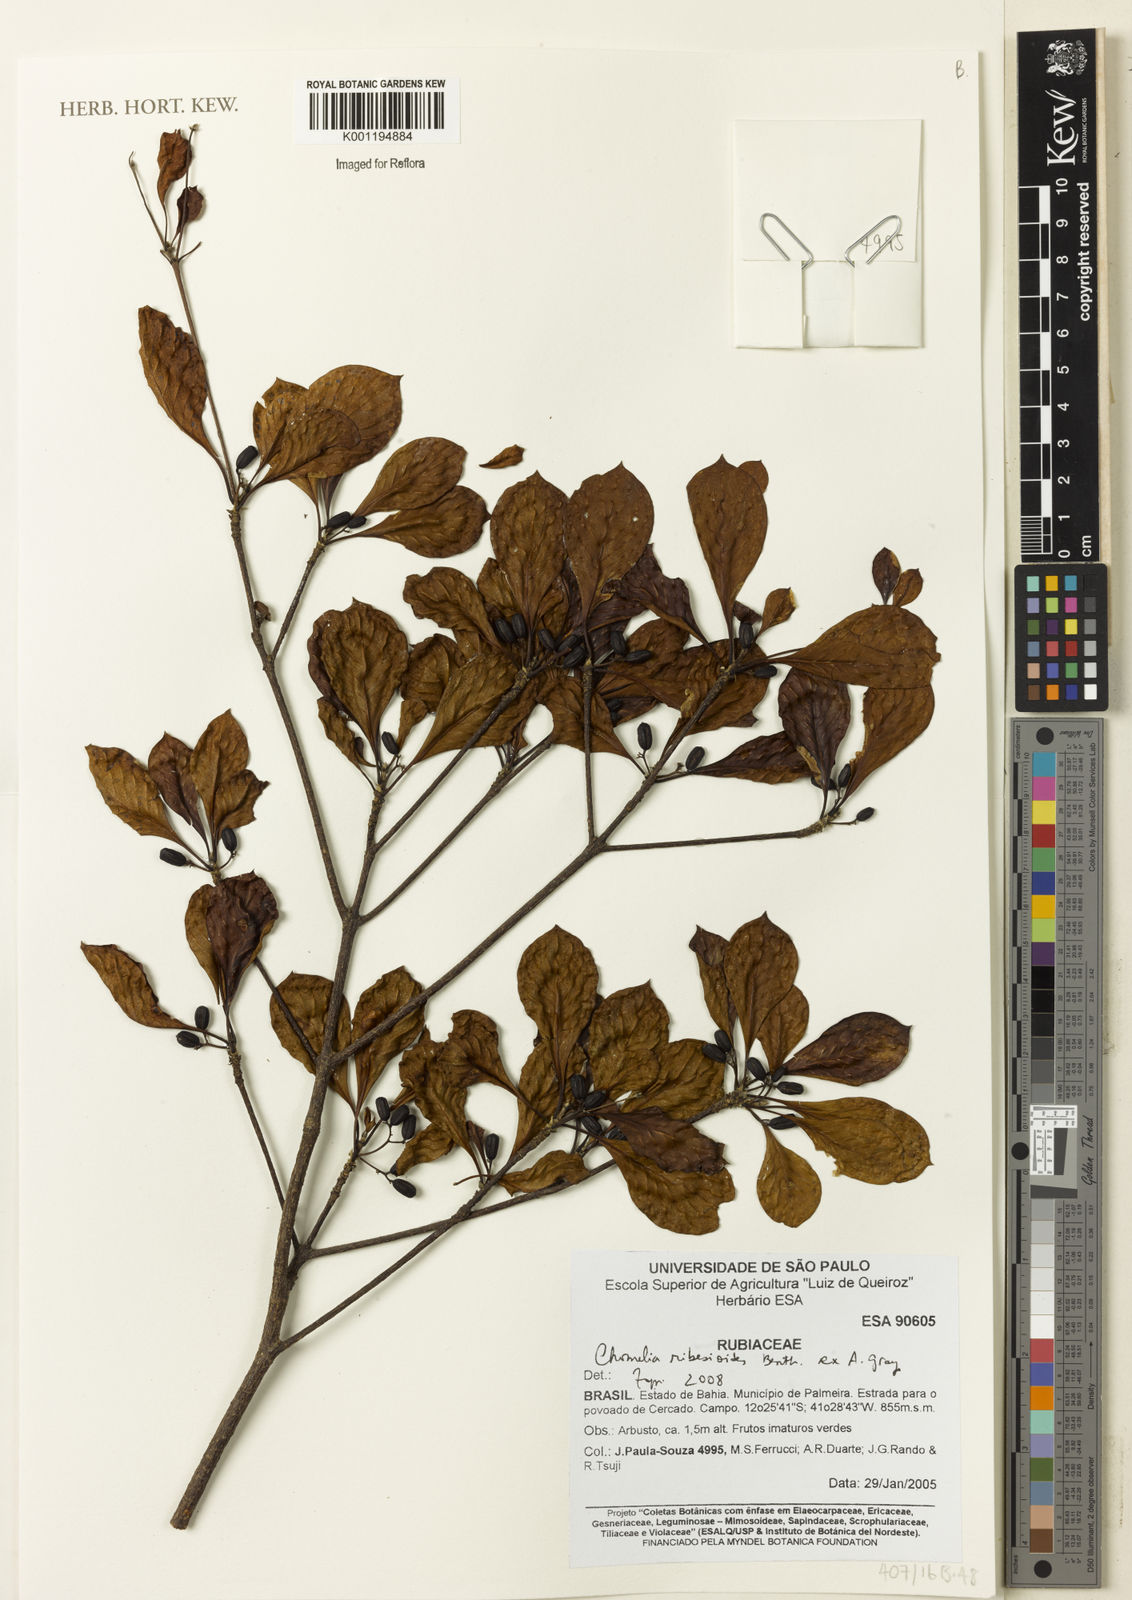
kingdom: Plantae
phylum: Tracheophyta
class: Magnoliopsida
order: Gentianales
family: Rubiaceae
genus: Chomelia
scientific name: Chomelia ribesioides
